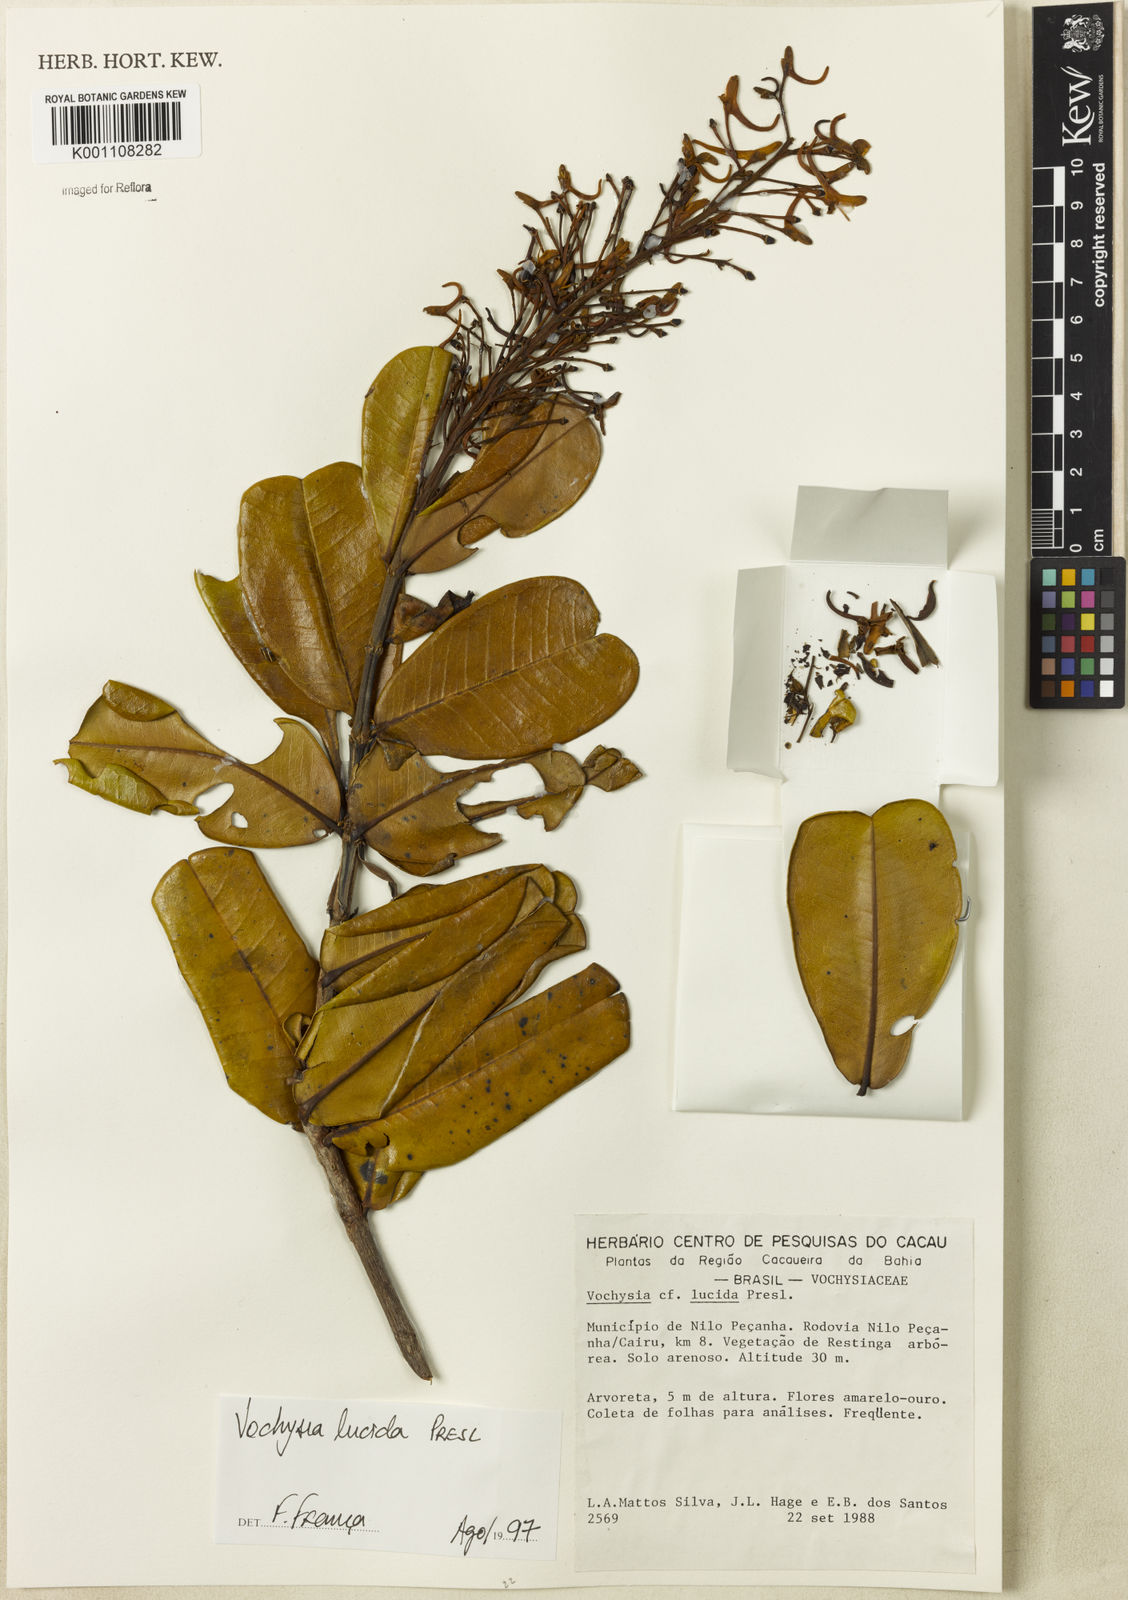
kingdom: Plantae
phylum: Tracheophyta
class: Magnoliopsida
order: Myrtales
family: Vochysiaceae
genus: Vochysia
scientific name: Vochysia lucida
